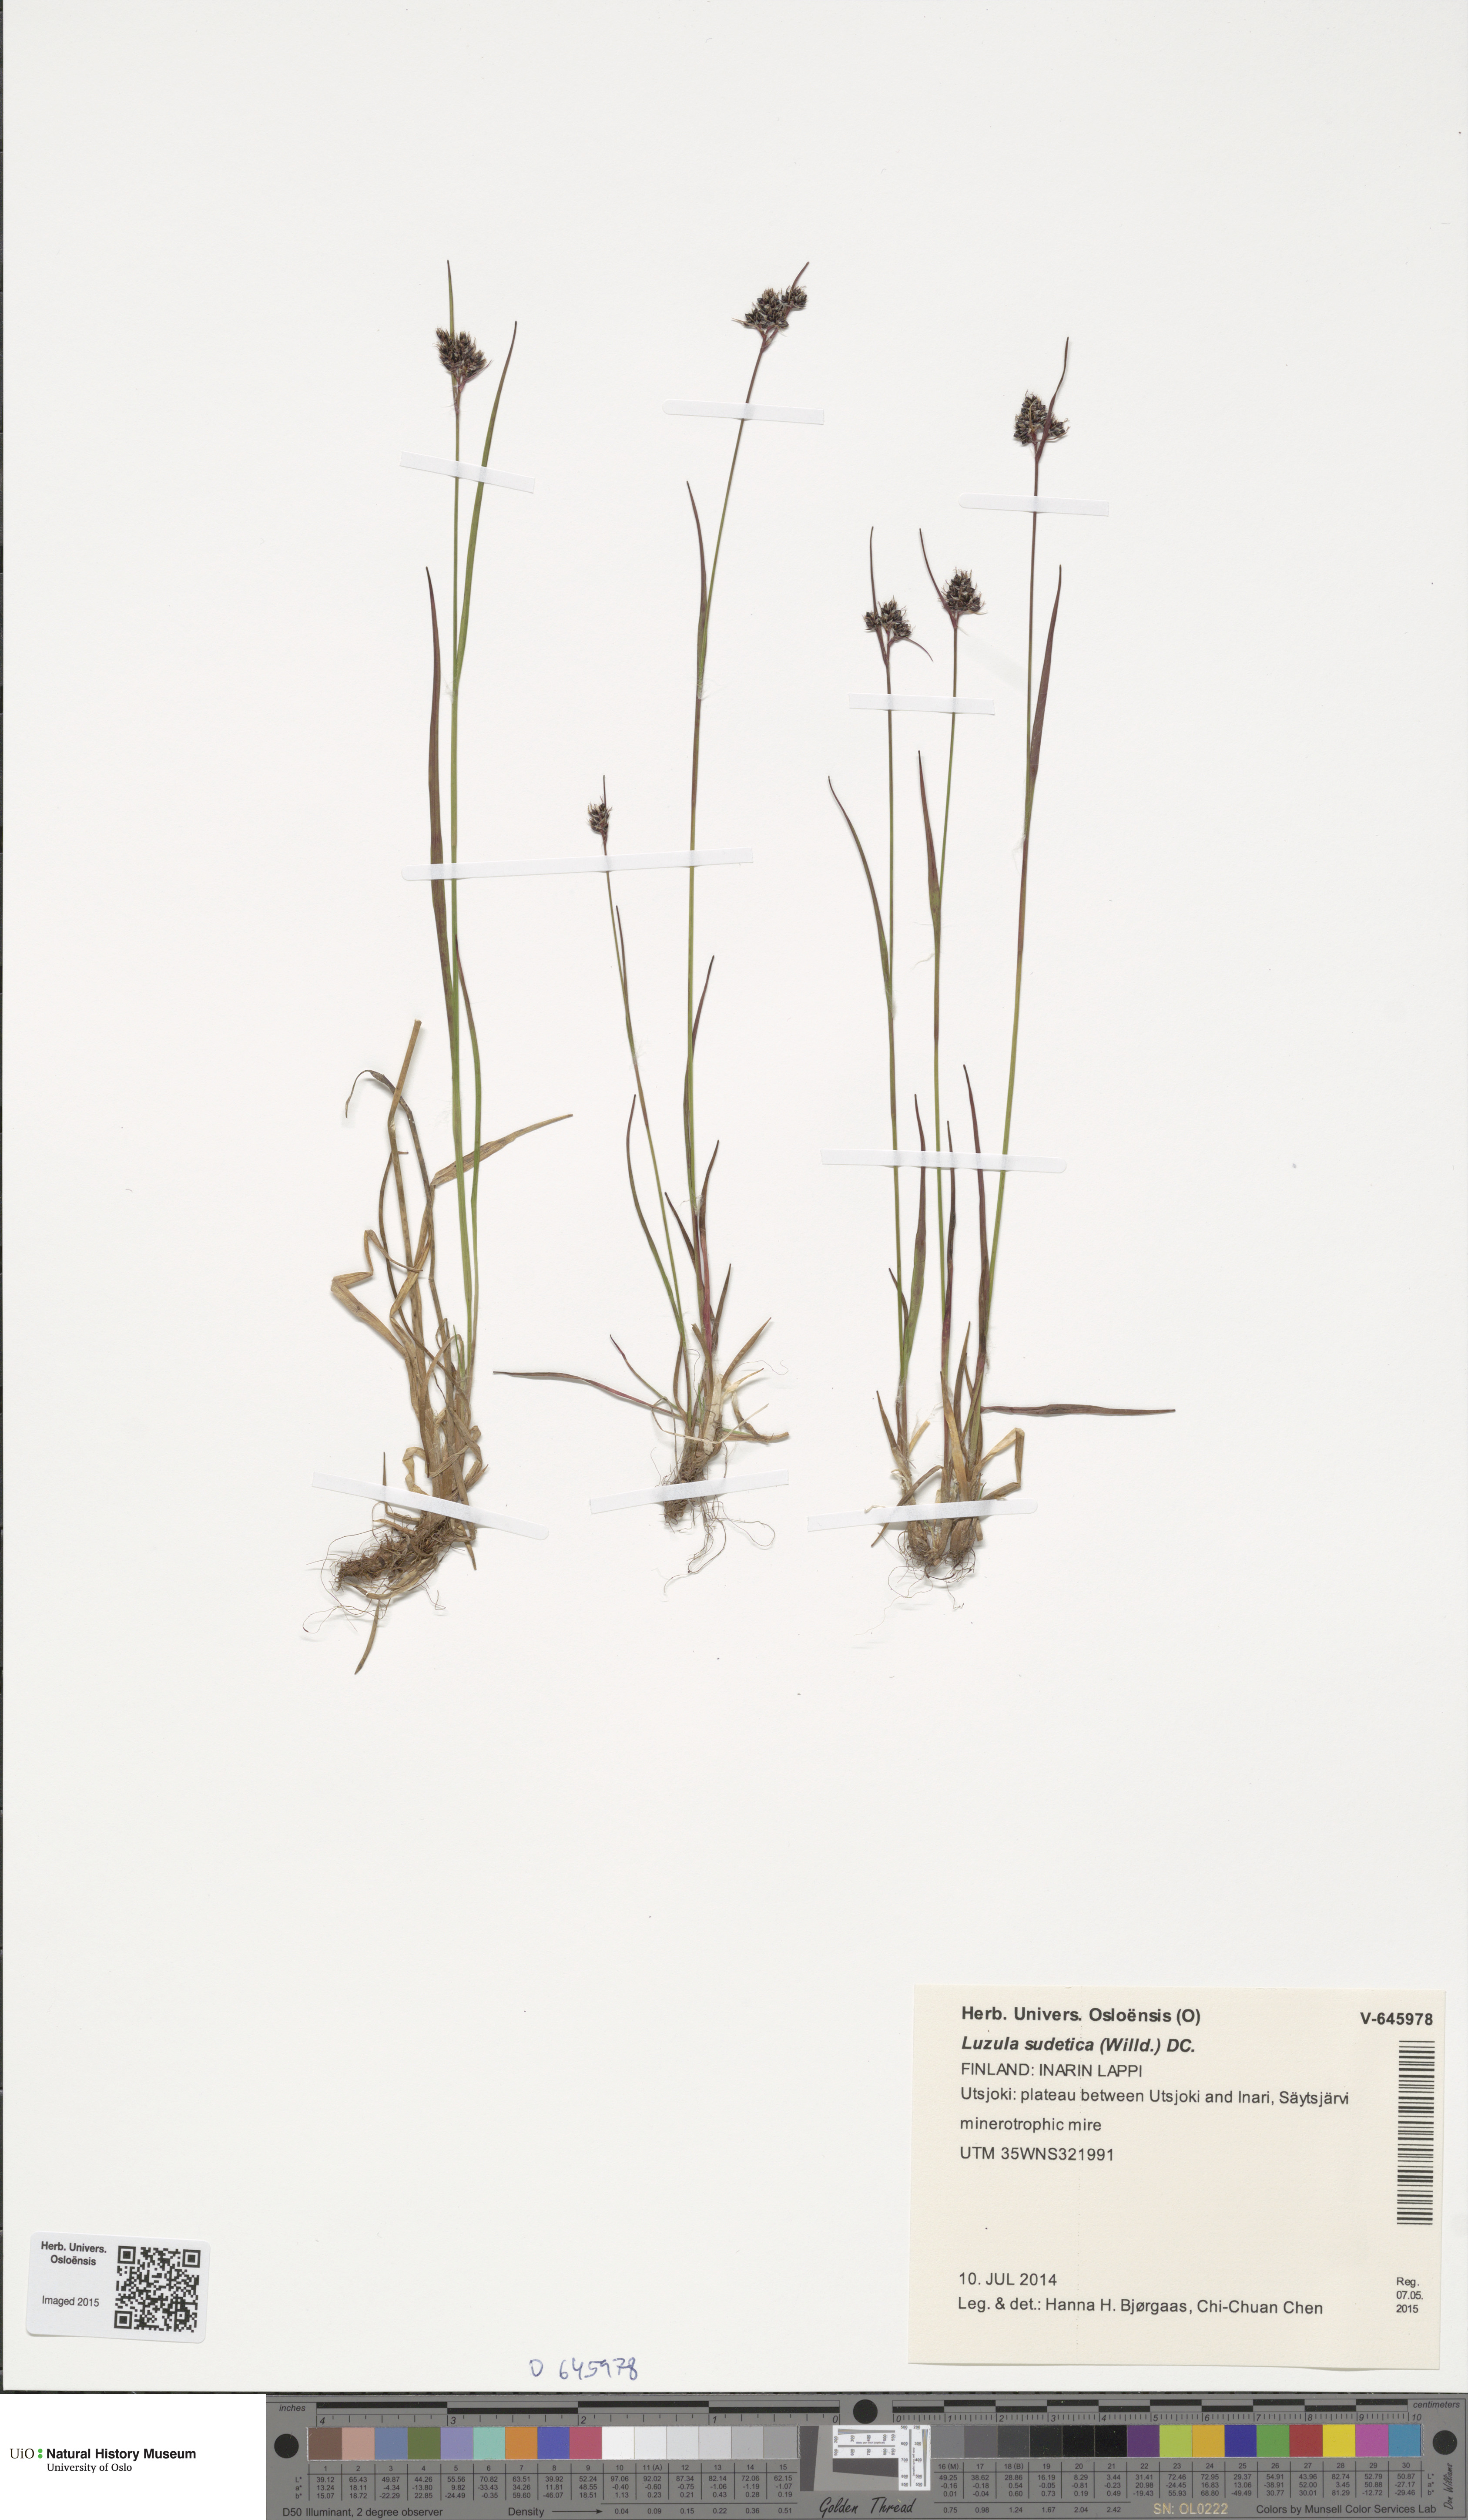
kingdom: Plantae
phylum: Tracheophyta
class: Liliopsida
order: Poales
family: Juncaceae
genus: Luzula
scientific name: Luzula sudetica
